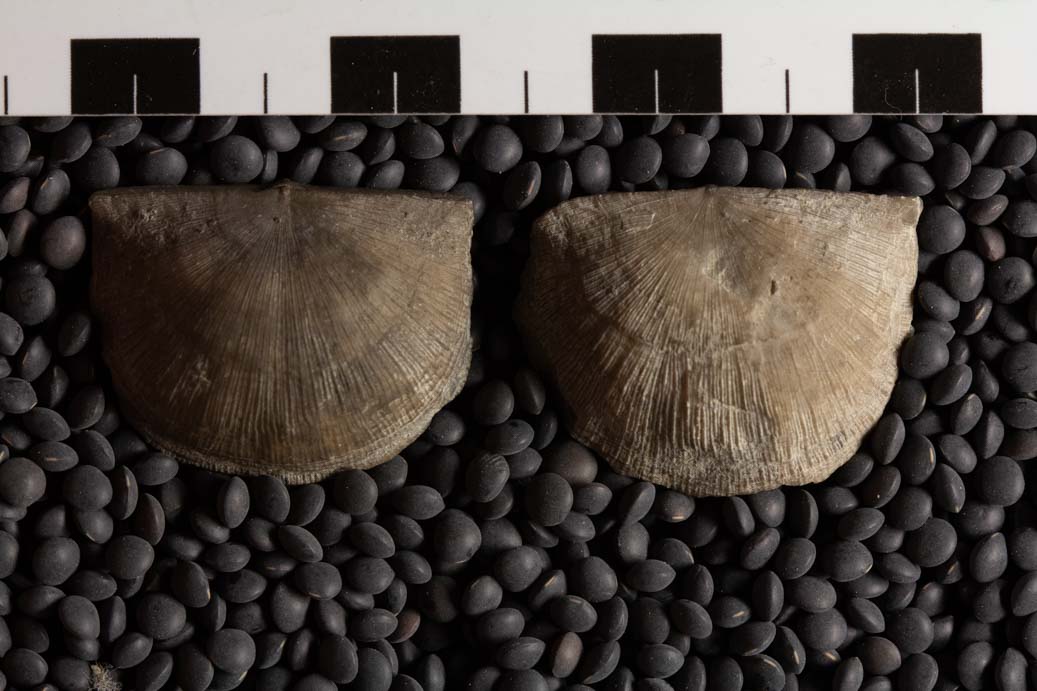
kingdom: Animalia
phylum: Brachiopoda
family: Strophomenidae
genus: Strophomena
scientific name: Strophomena Leptaena filitexta
